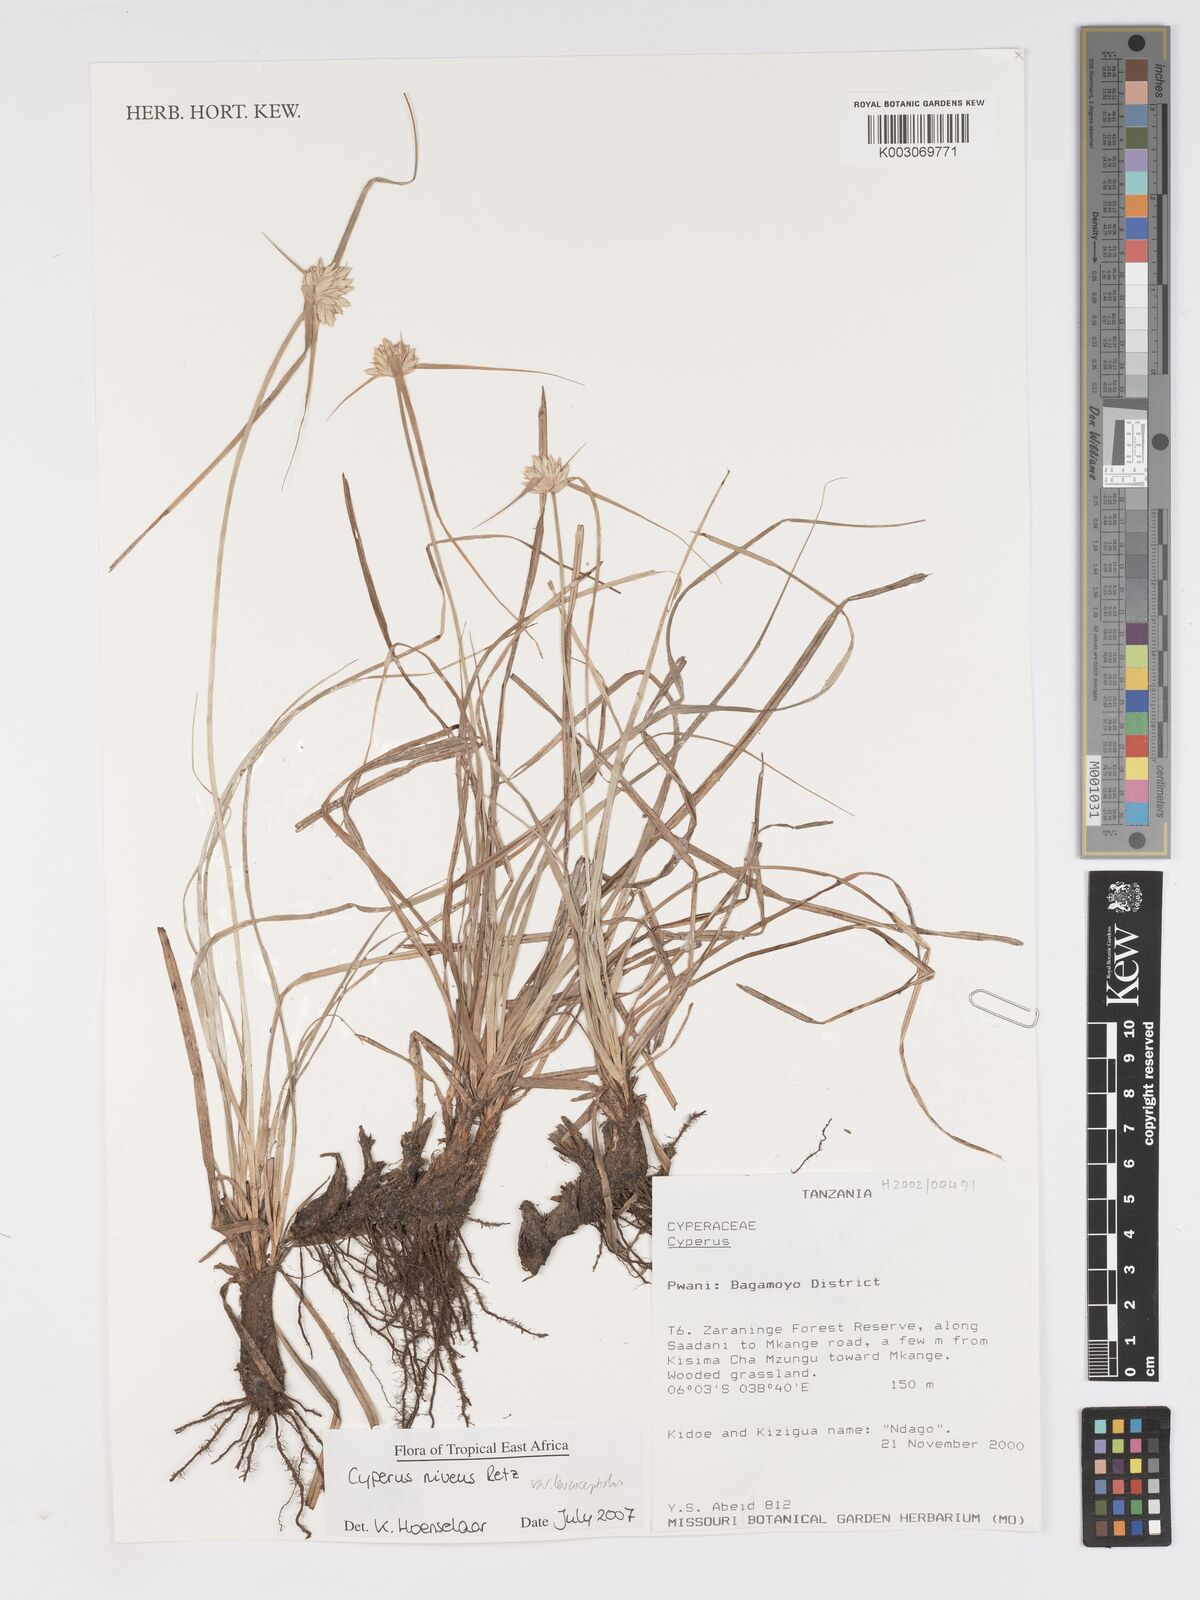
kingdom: Plantae
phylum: Tracheophyta
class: Liliopsida
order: Poales
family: Cyperaceae
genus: Cyperus
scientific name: Cyperus niveus
